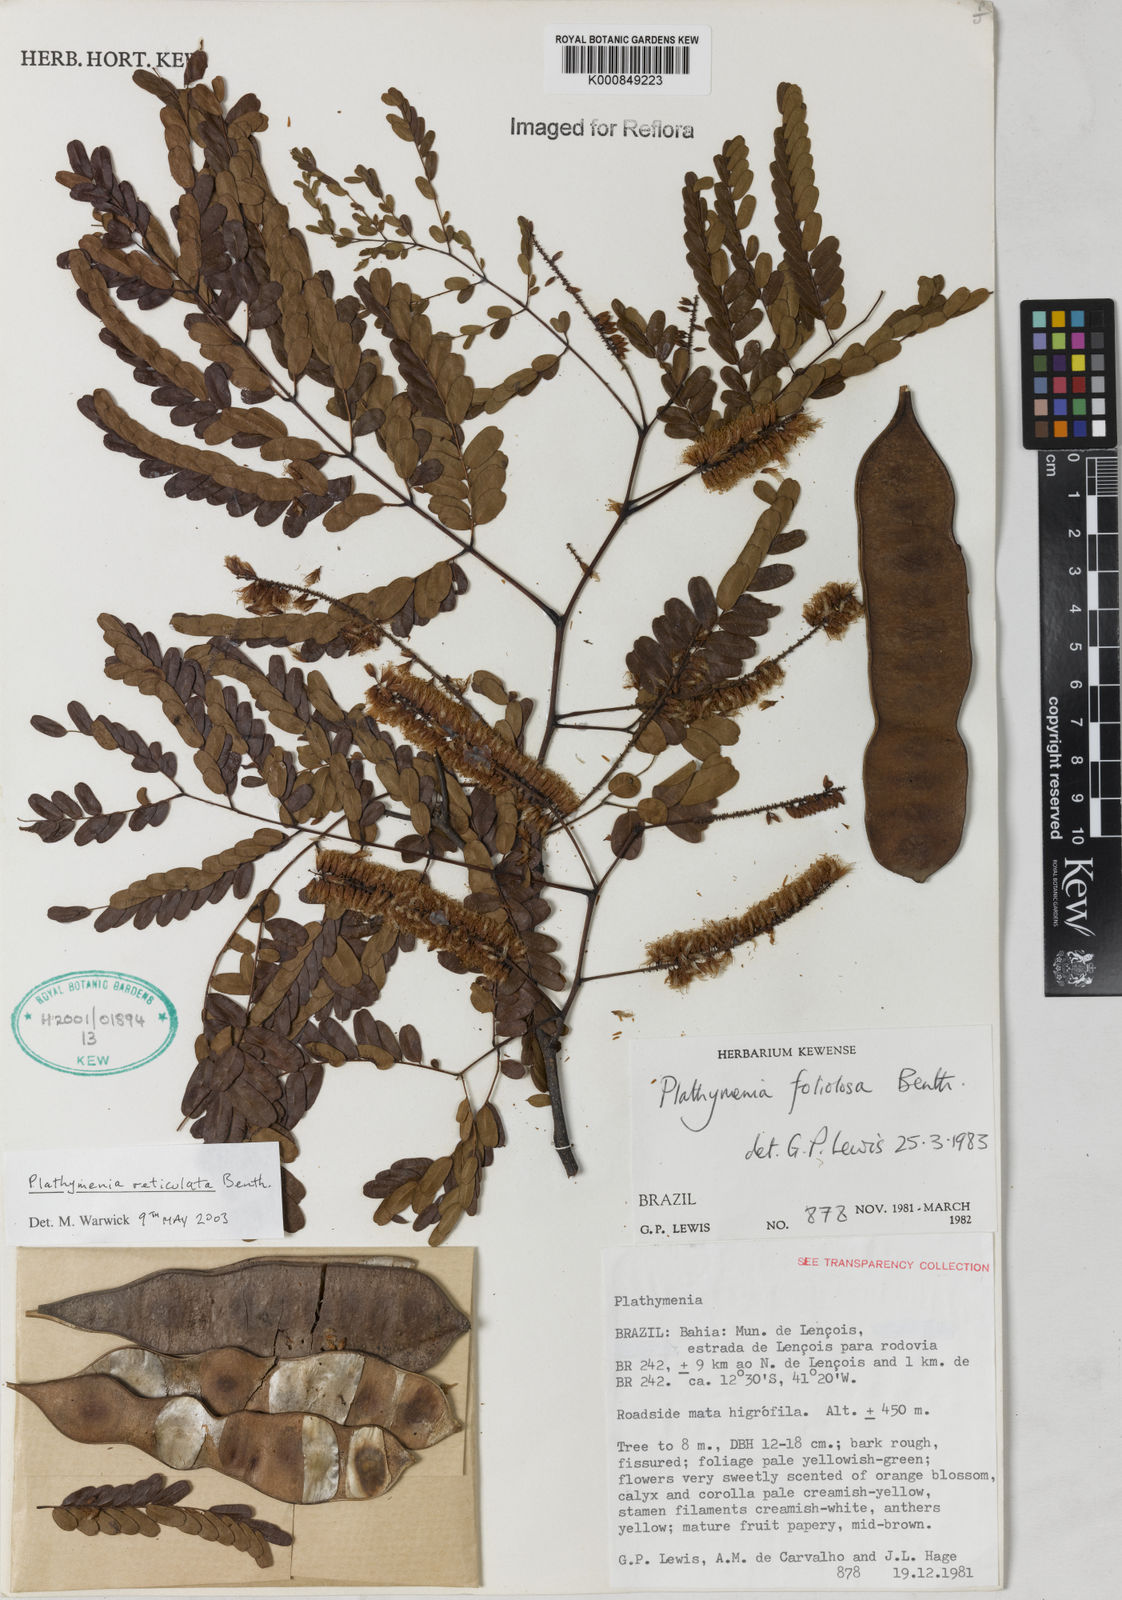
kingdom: Plantae
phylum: Tracheophyta
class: Magnoliopsida
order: Fabales
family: Fabaceae
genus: Plathymenia
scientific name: Plathymenia reticulata
